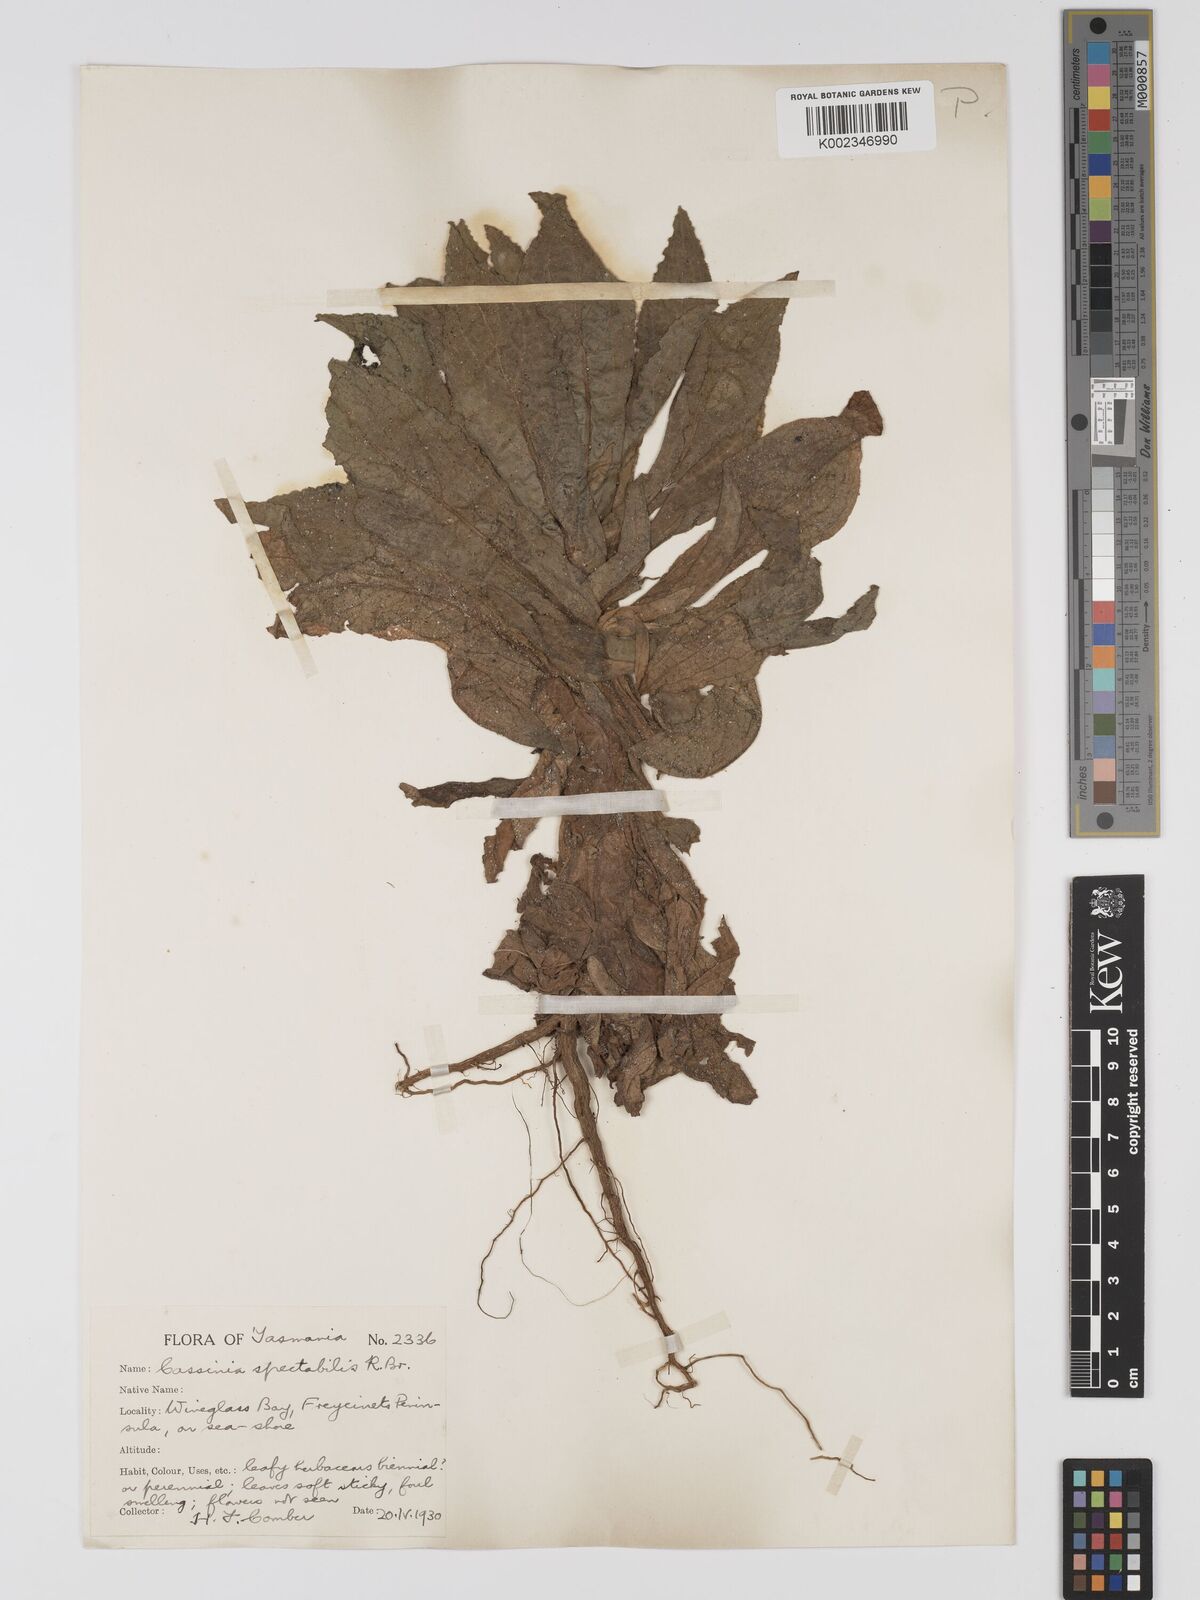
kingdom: Plantae
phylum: Tracheophyta
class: Magnoliopsida
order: Asterales
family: Asteraceae
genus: Apalochlamys
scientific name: Apalochlamys spectabilis
